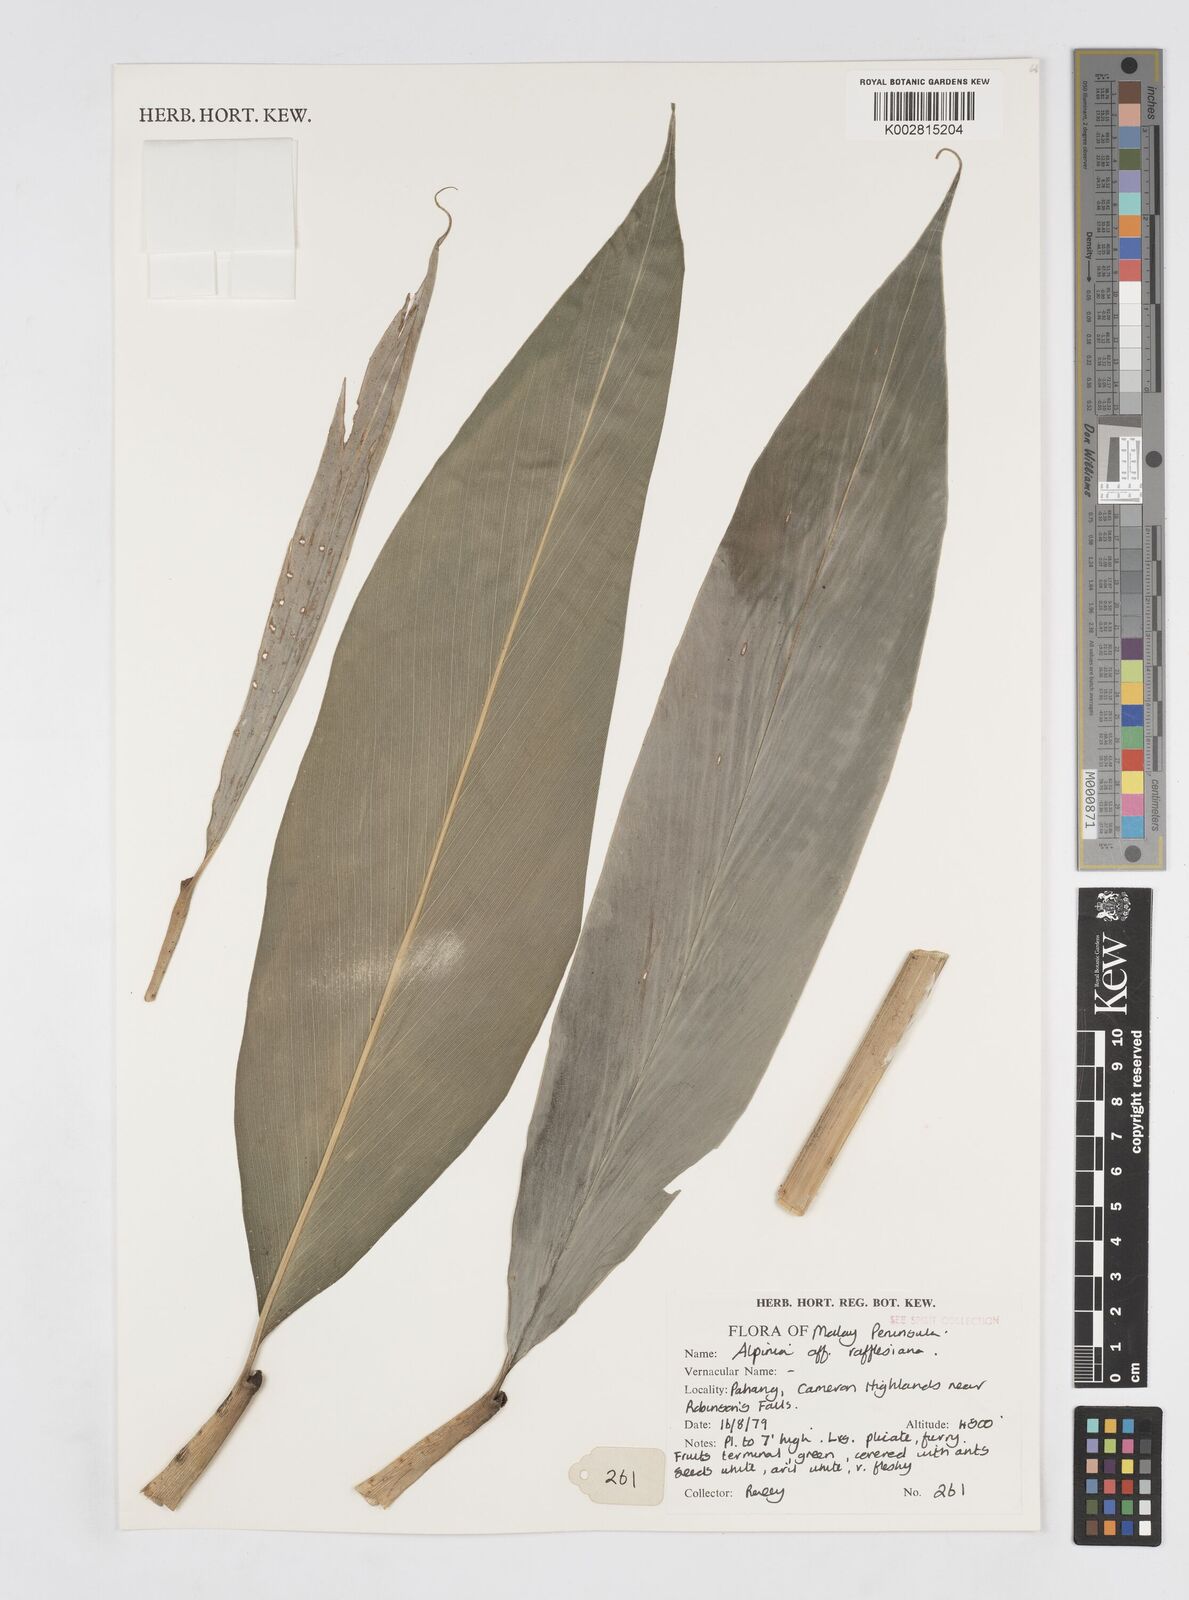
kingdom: Plantae
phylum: Tracheophyta
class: Liliopsida
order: Zingiberales
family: Zingiberaceae
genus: Alpinia
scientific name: Alpinia rafflesiana
